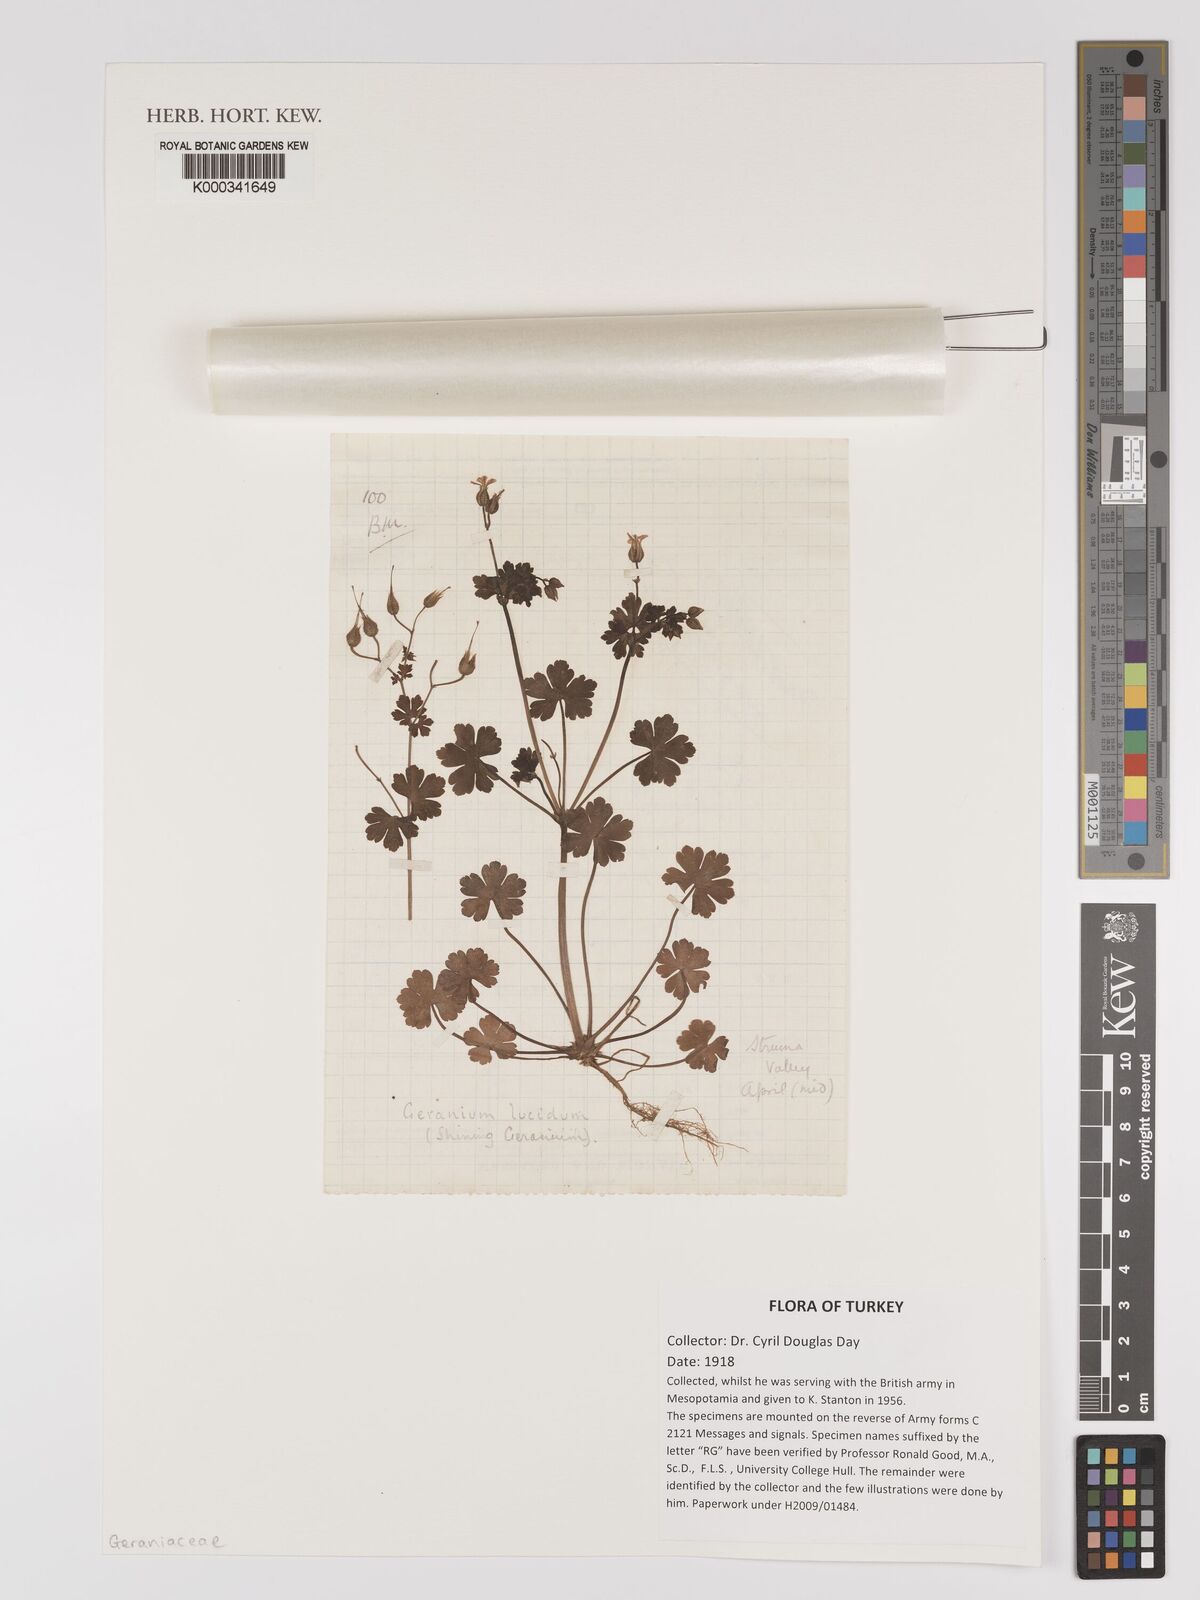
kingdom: Plantae
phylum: Tracheophyta
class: Magnoliopsida
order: Geraniales
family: Geraniaceae
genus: Geranium
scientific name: Geranium lucidum
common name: Shining crane's-bill
